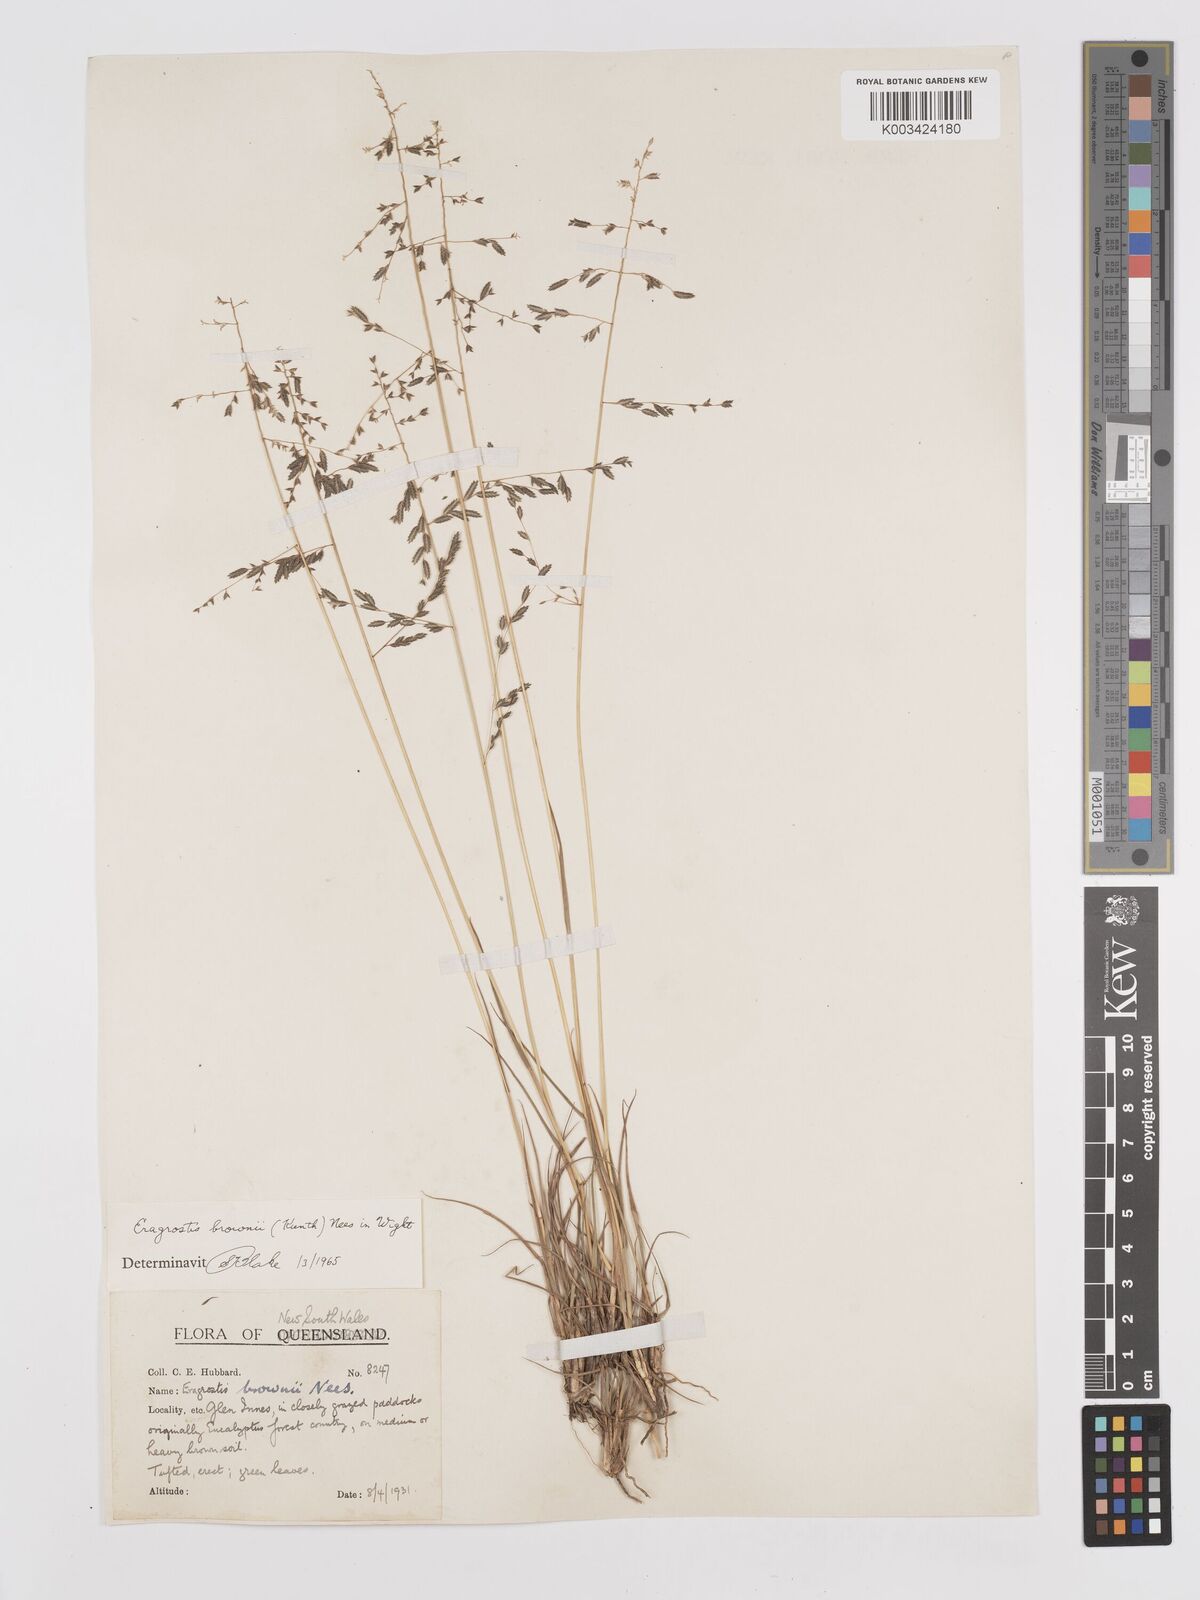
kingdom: Plantae
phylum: Tracheophyta
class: Liliopsida
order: Poales
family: Poaceae
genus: Eragrostis
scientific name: Eragrostis brownii
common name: Lovegrass
